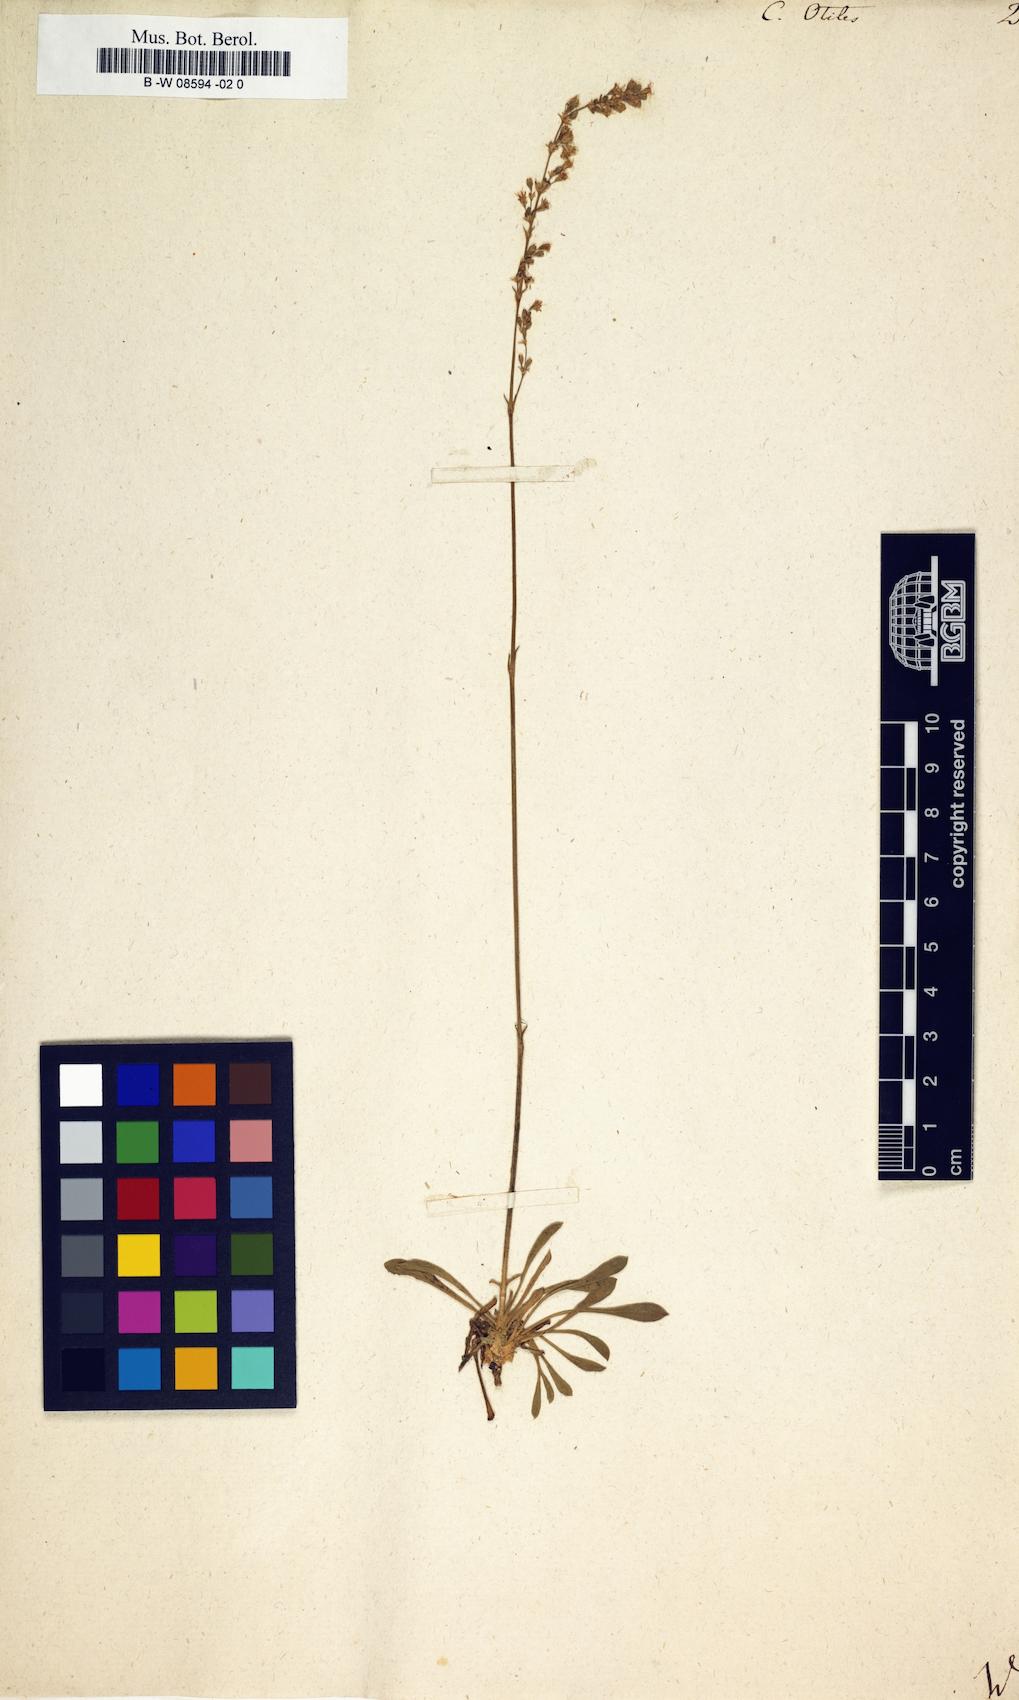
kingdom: Plantae
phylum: Tracheophyta
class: Magnoliopsida
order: Caryophyllales
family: Caryophyllaceae
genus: Silene
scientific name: Silene otites
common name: Spanish catchfly
